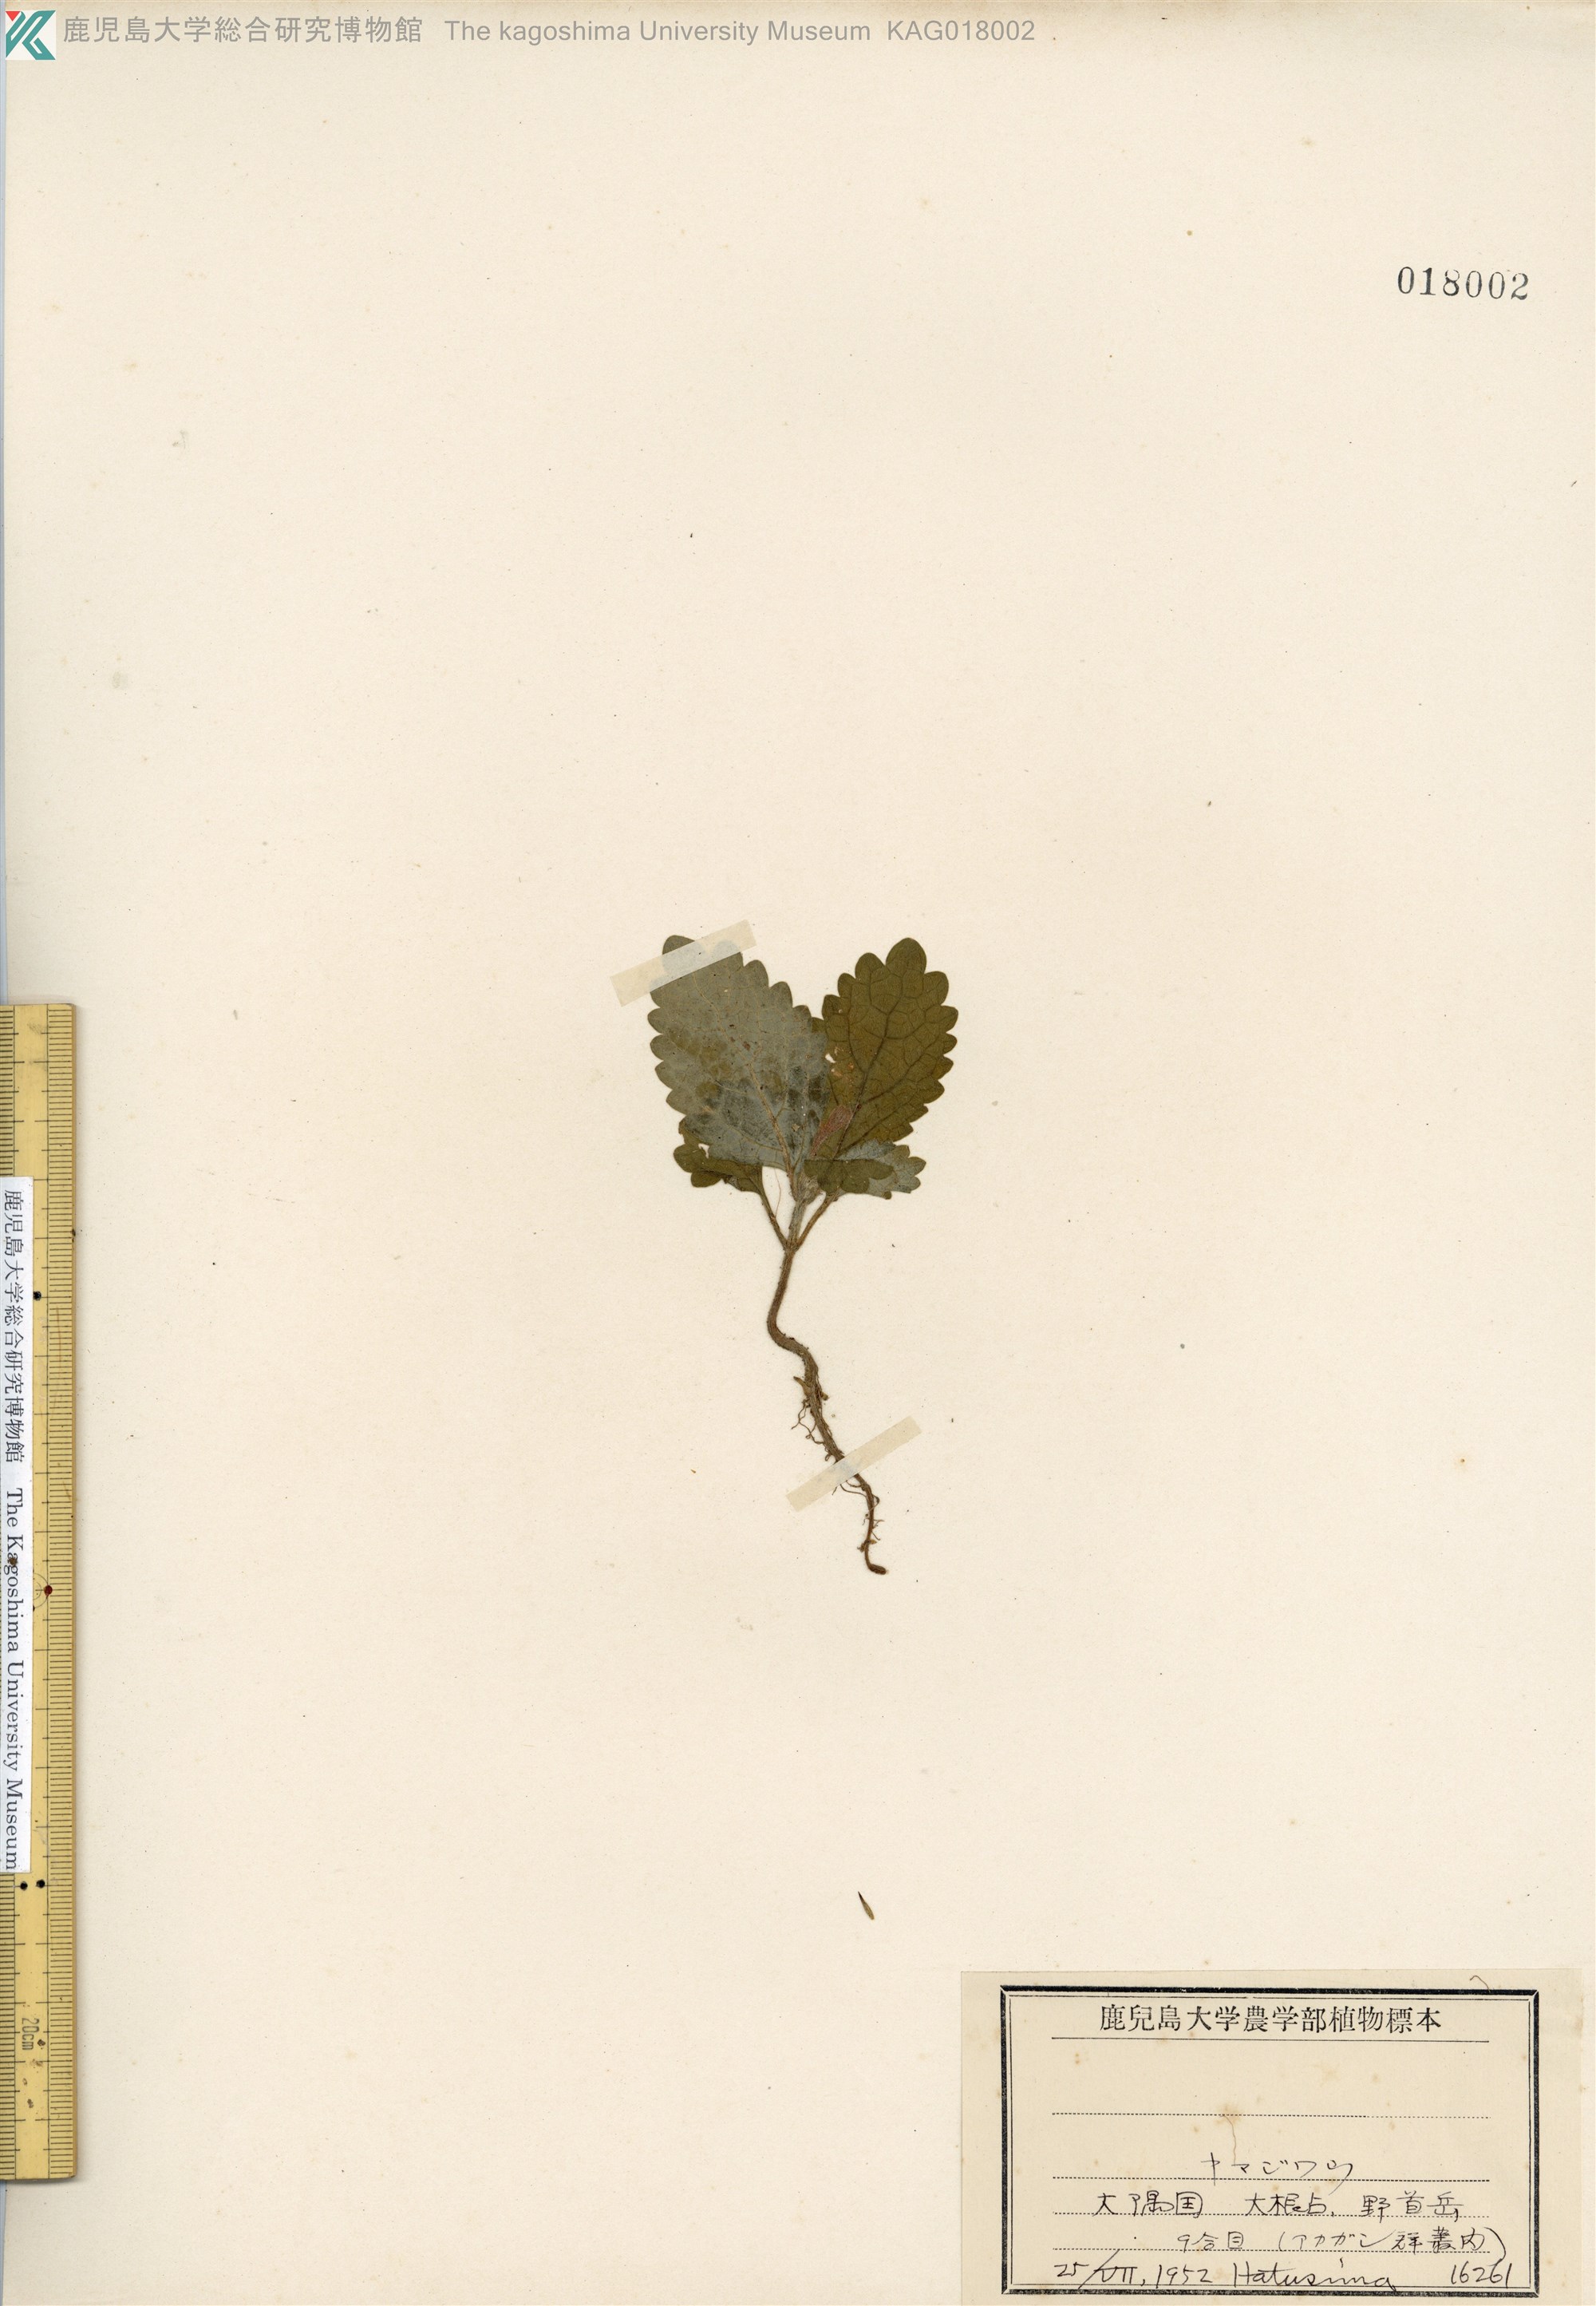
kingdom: Plantae
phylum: Tracheophyta
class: Magnoliopsida
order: Lamiales
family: Lamiaceae
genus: Ajugoides
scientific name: Ajugoides humilis
